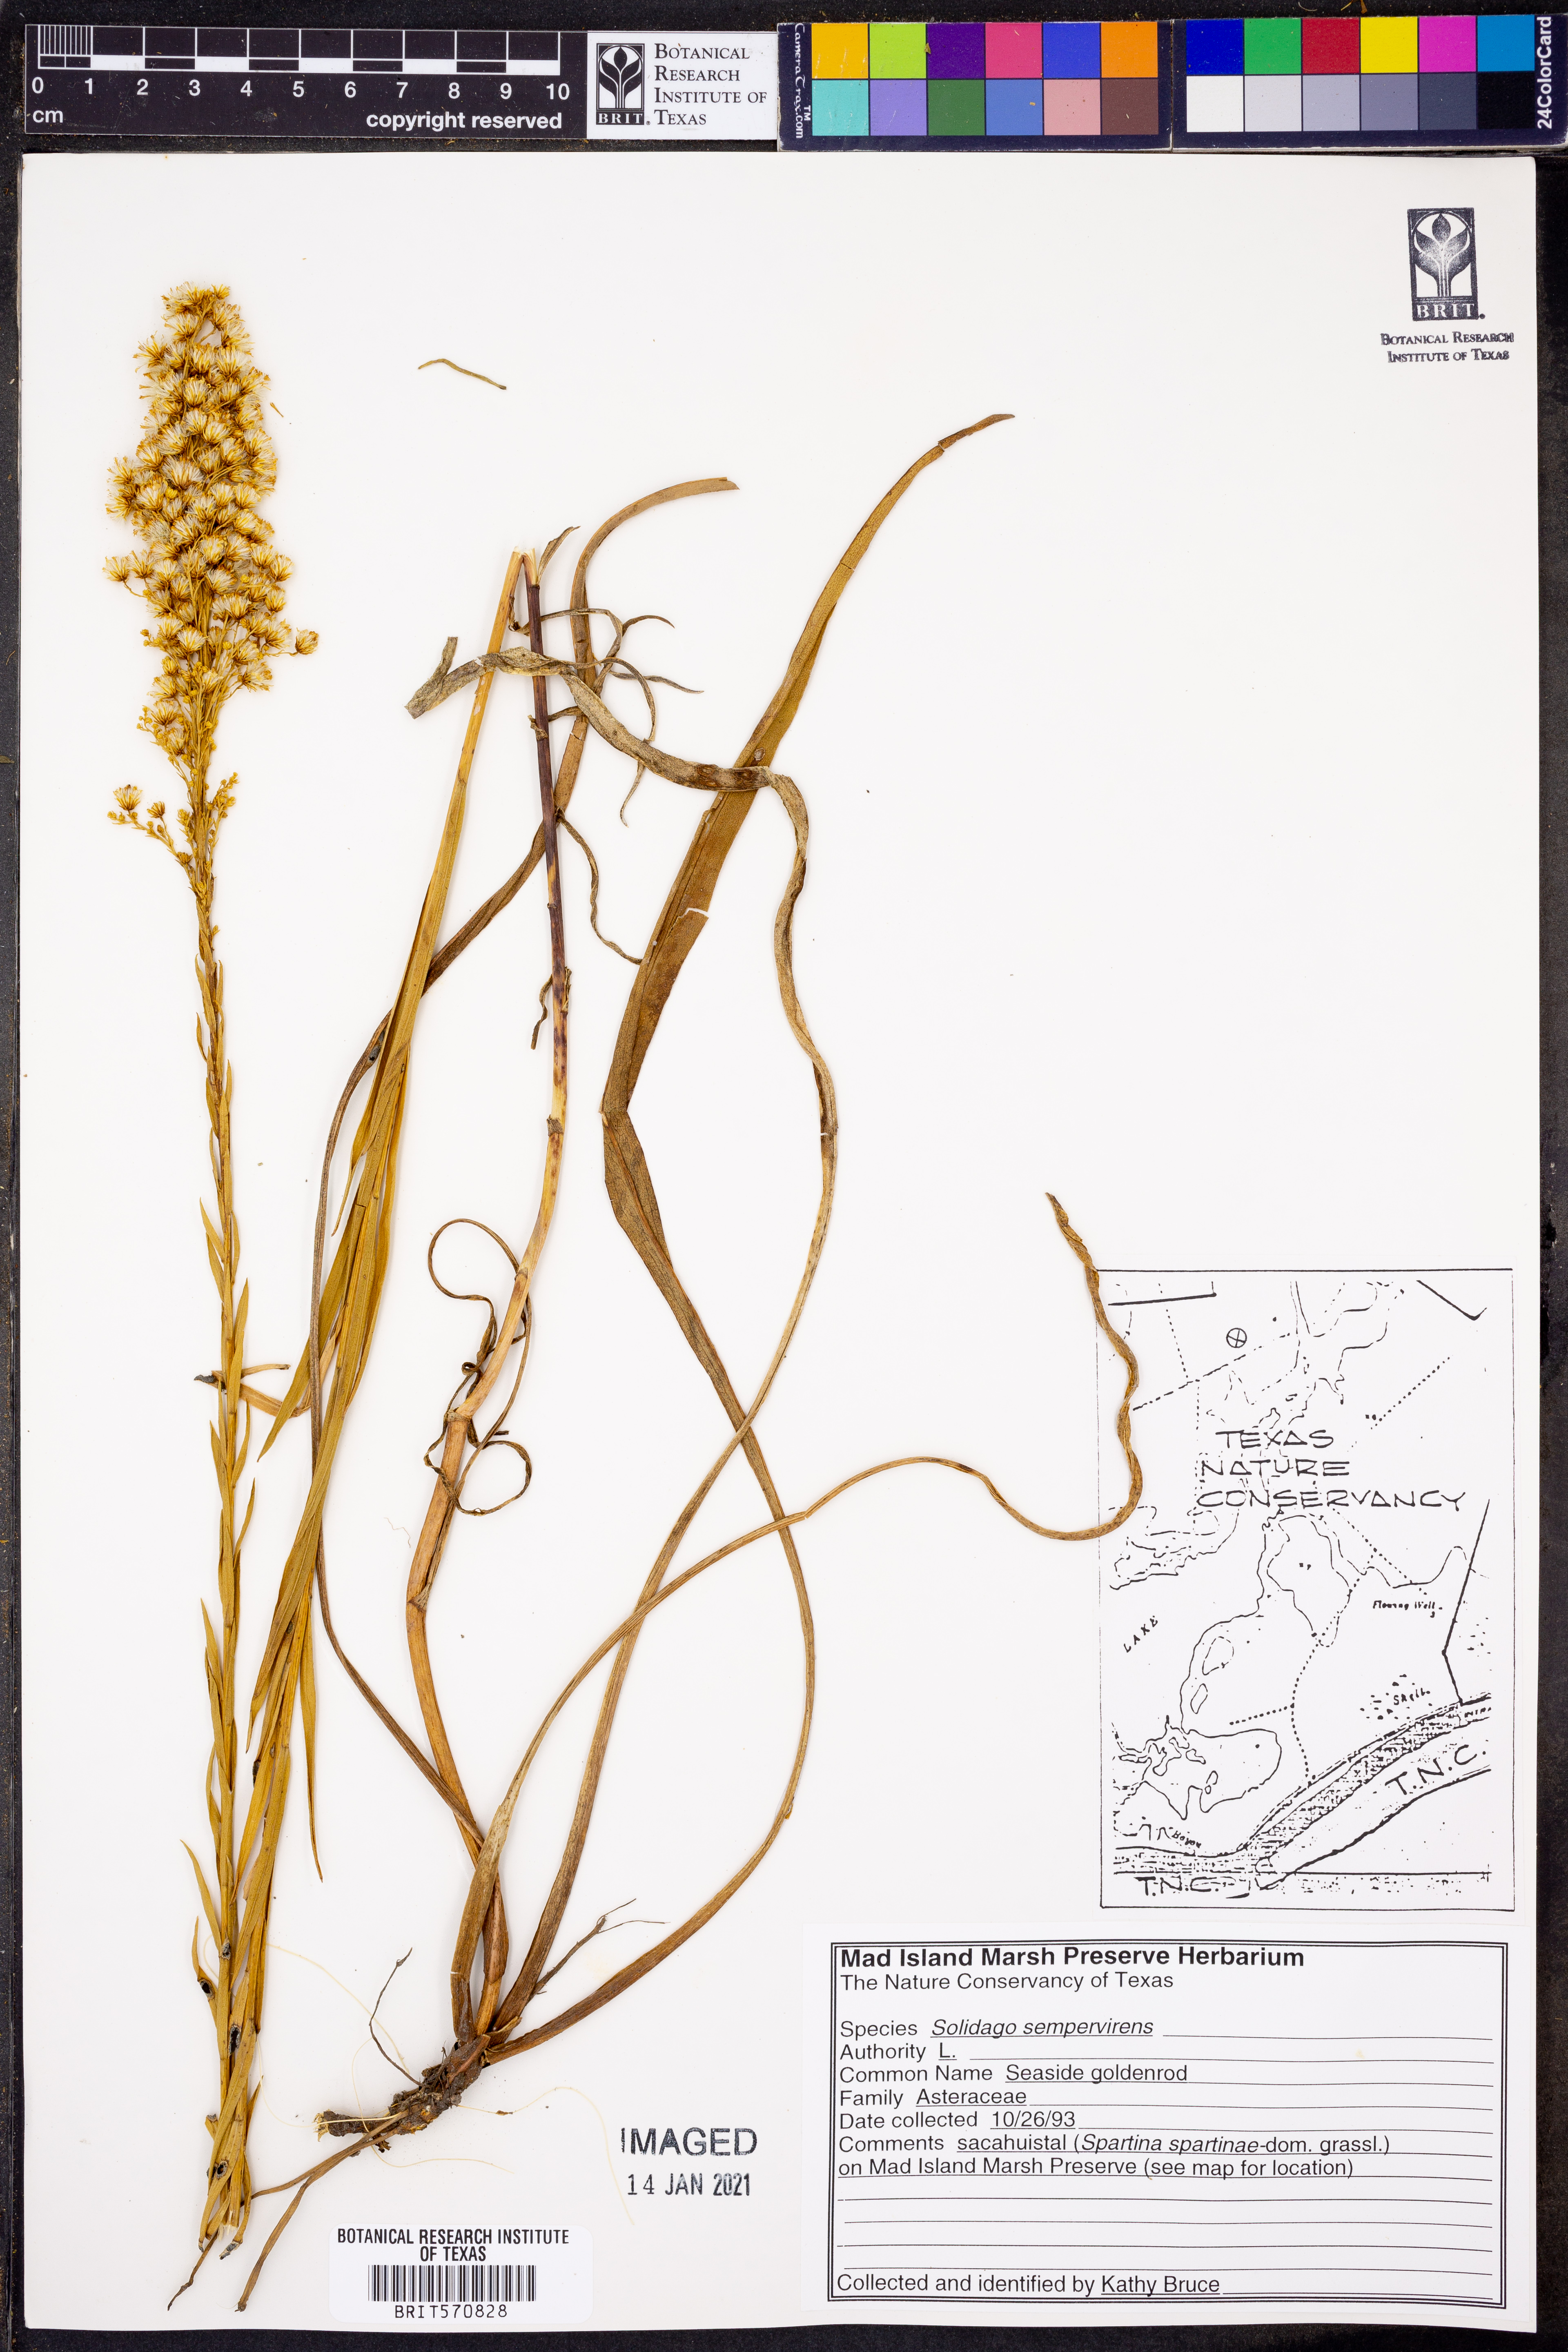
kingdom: Plantae
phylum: Tracheophyta
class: Magnoliopsida
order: Asterales
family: Asteraceae
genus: Solidago
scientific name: Solidago sempervirens
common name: Salt-marsh goldenrod
